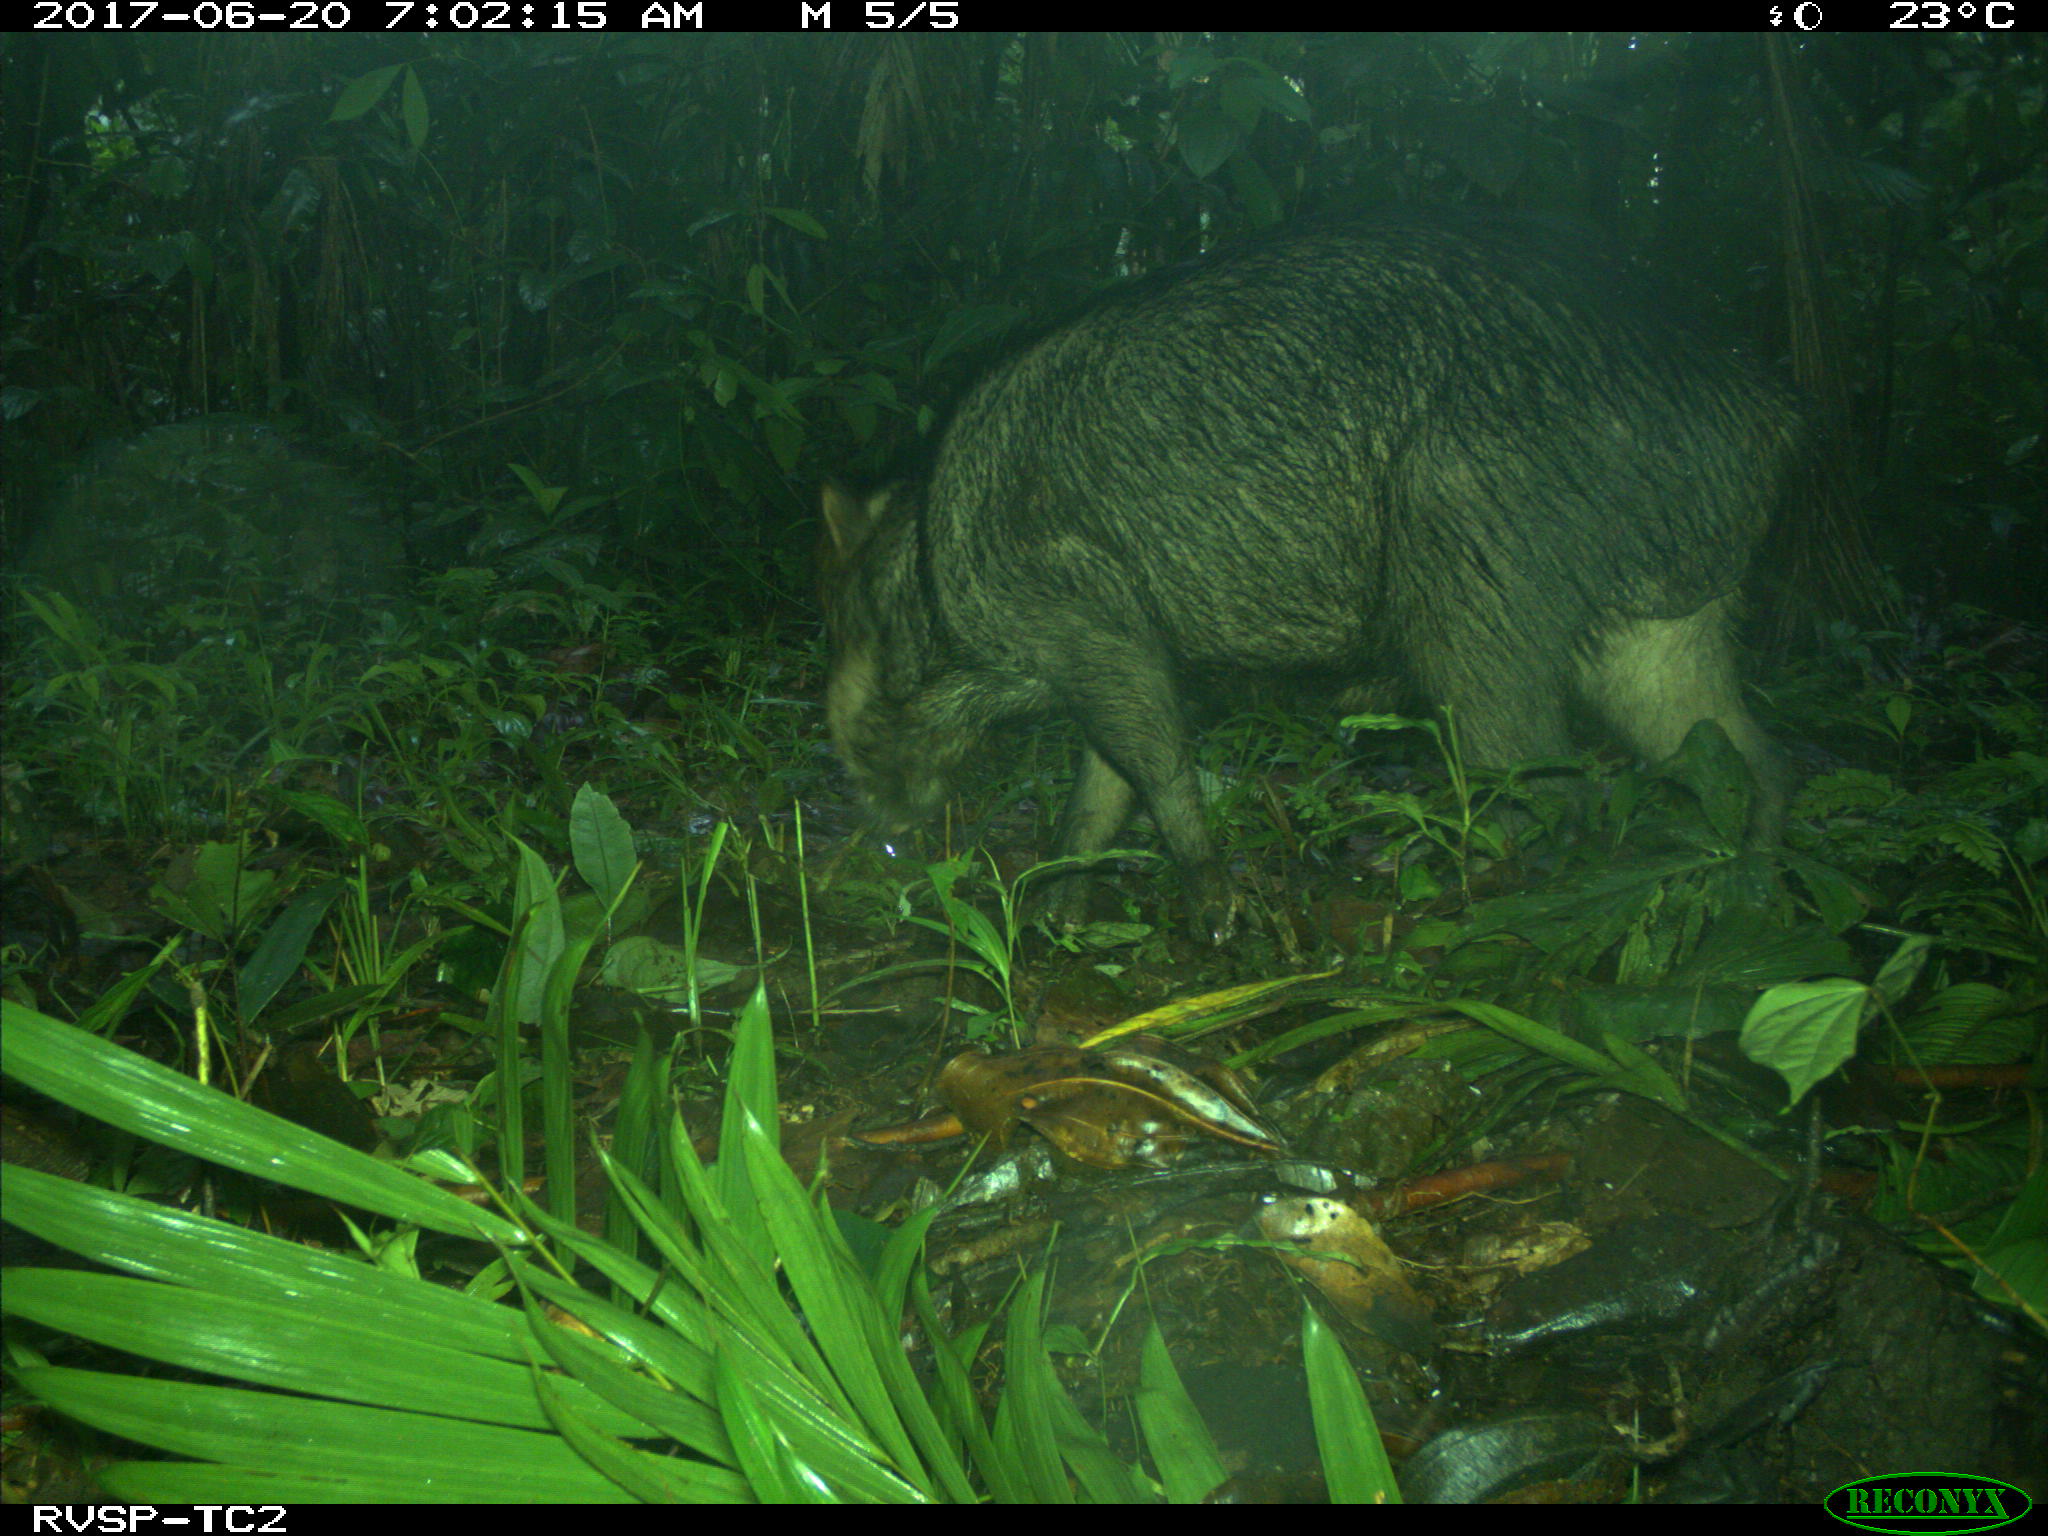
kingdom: Animalia
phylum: Chordata
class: Mammalia
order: Artiodactyla
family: Tayassuidae
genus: Tayassu
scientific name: Tayassu pecari
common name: White-lipped peccary
